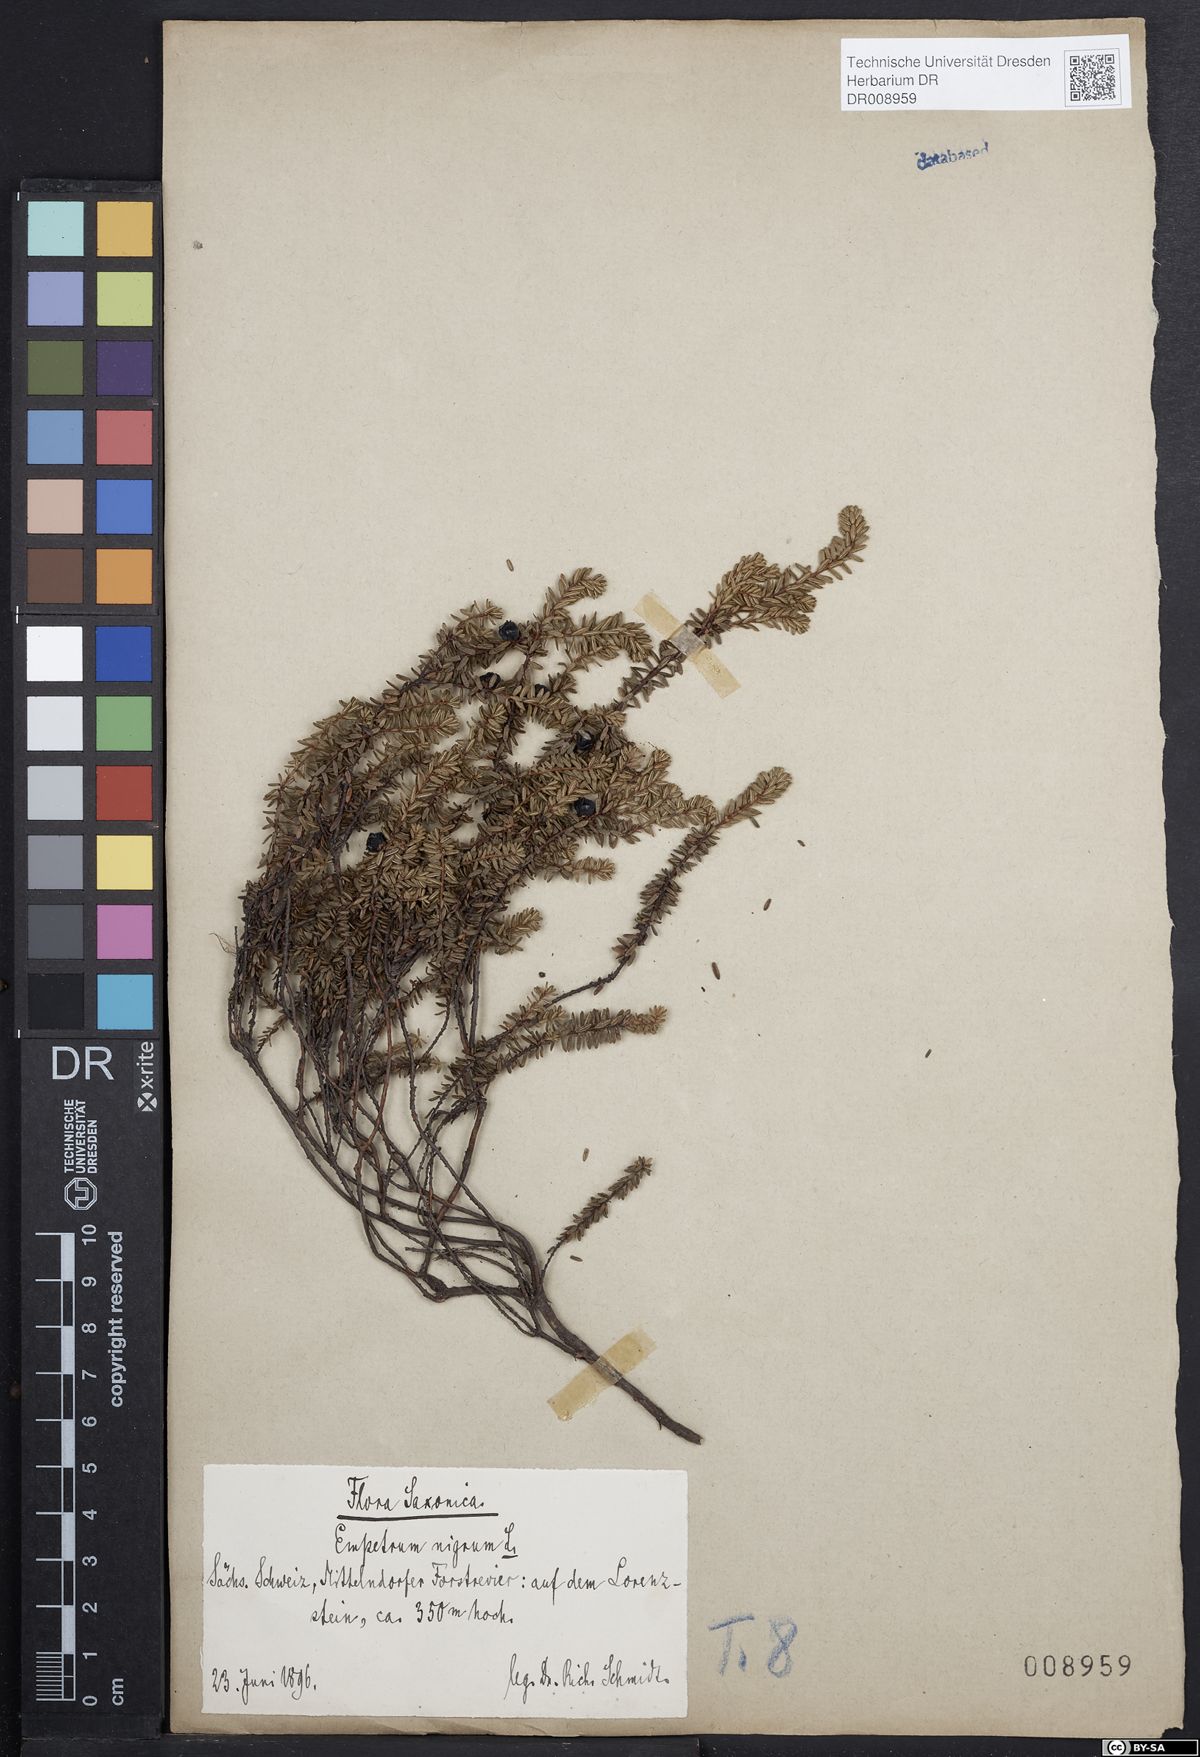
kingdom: Plantae
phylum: Tracheophyta
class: Magnoliopsida
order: Ericales
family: Ericaceae
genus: Empetrum
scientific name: Empetrum nigrum
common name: Black crowberry
